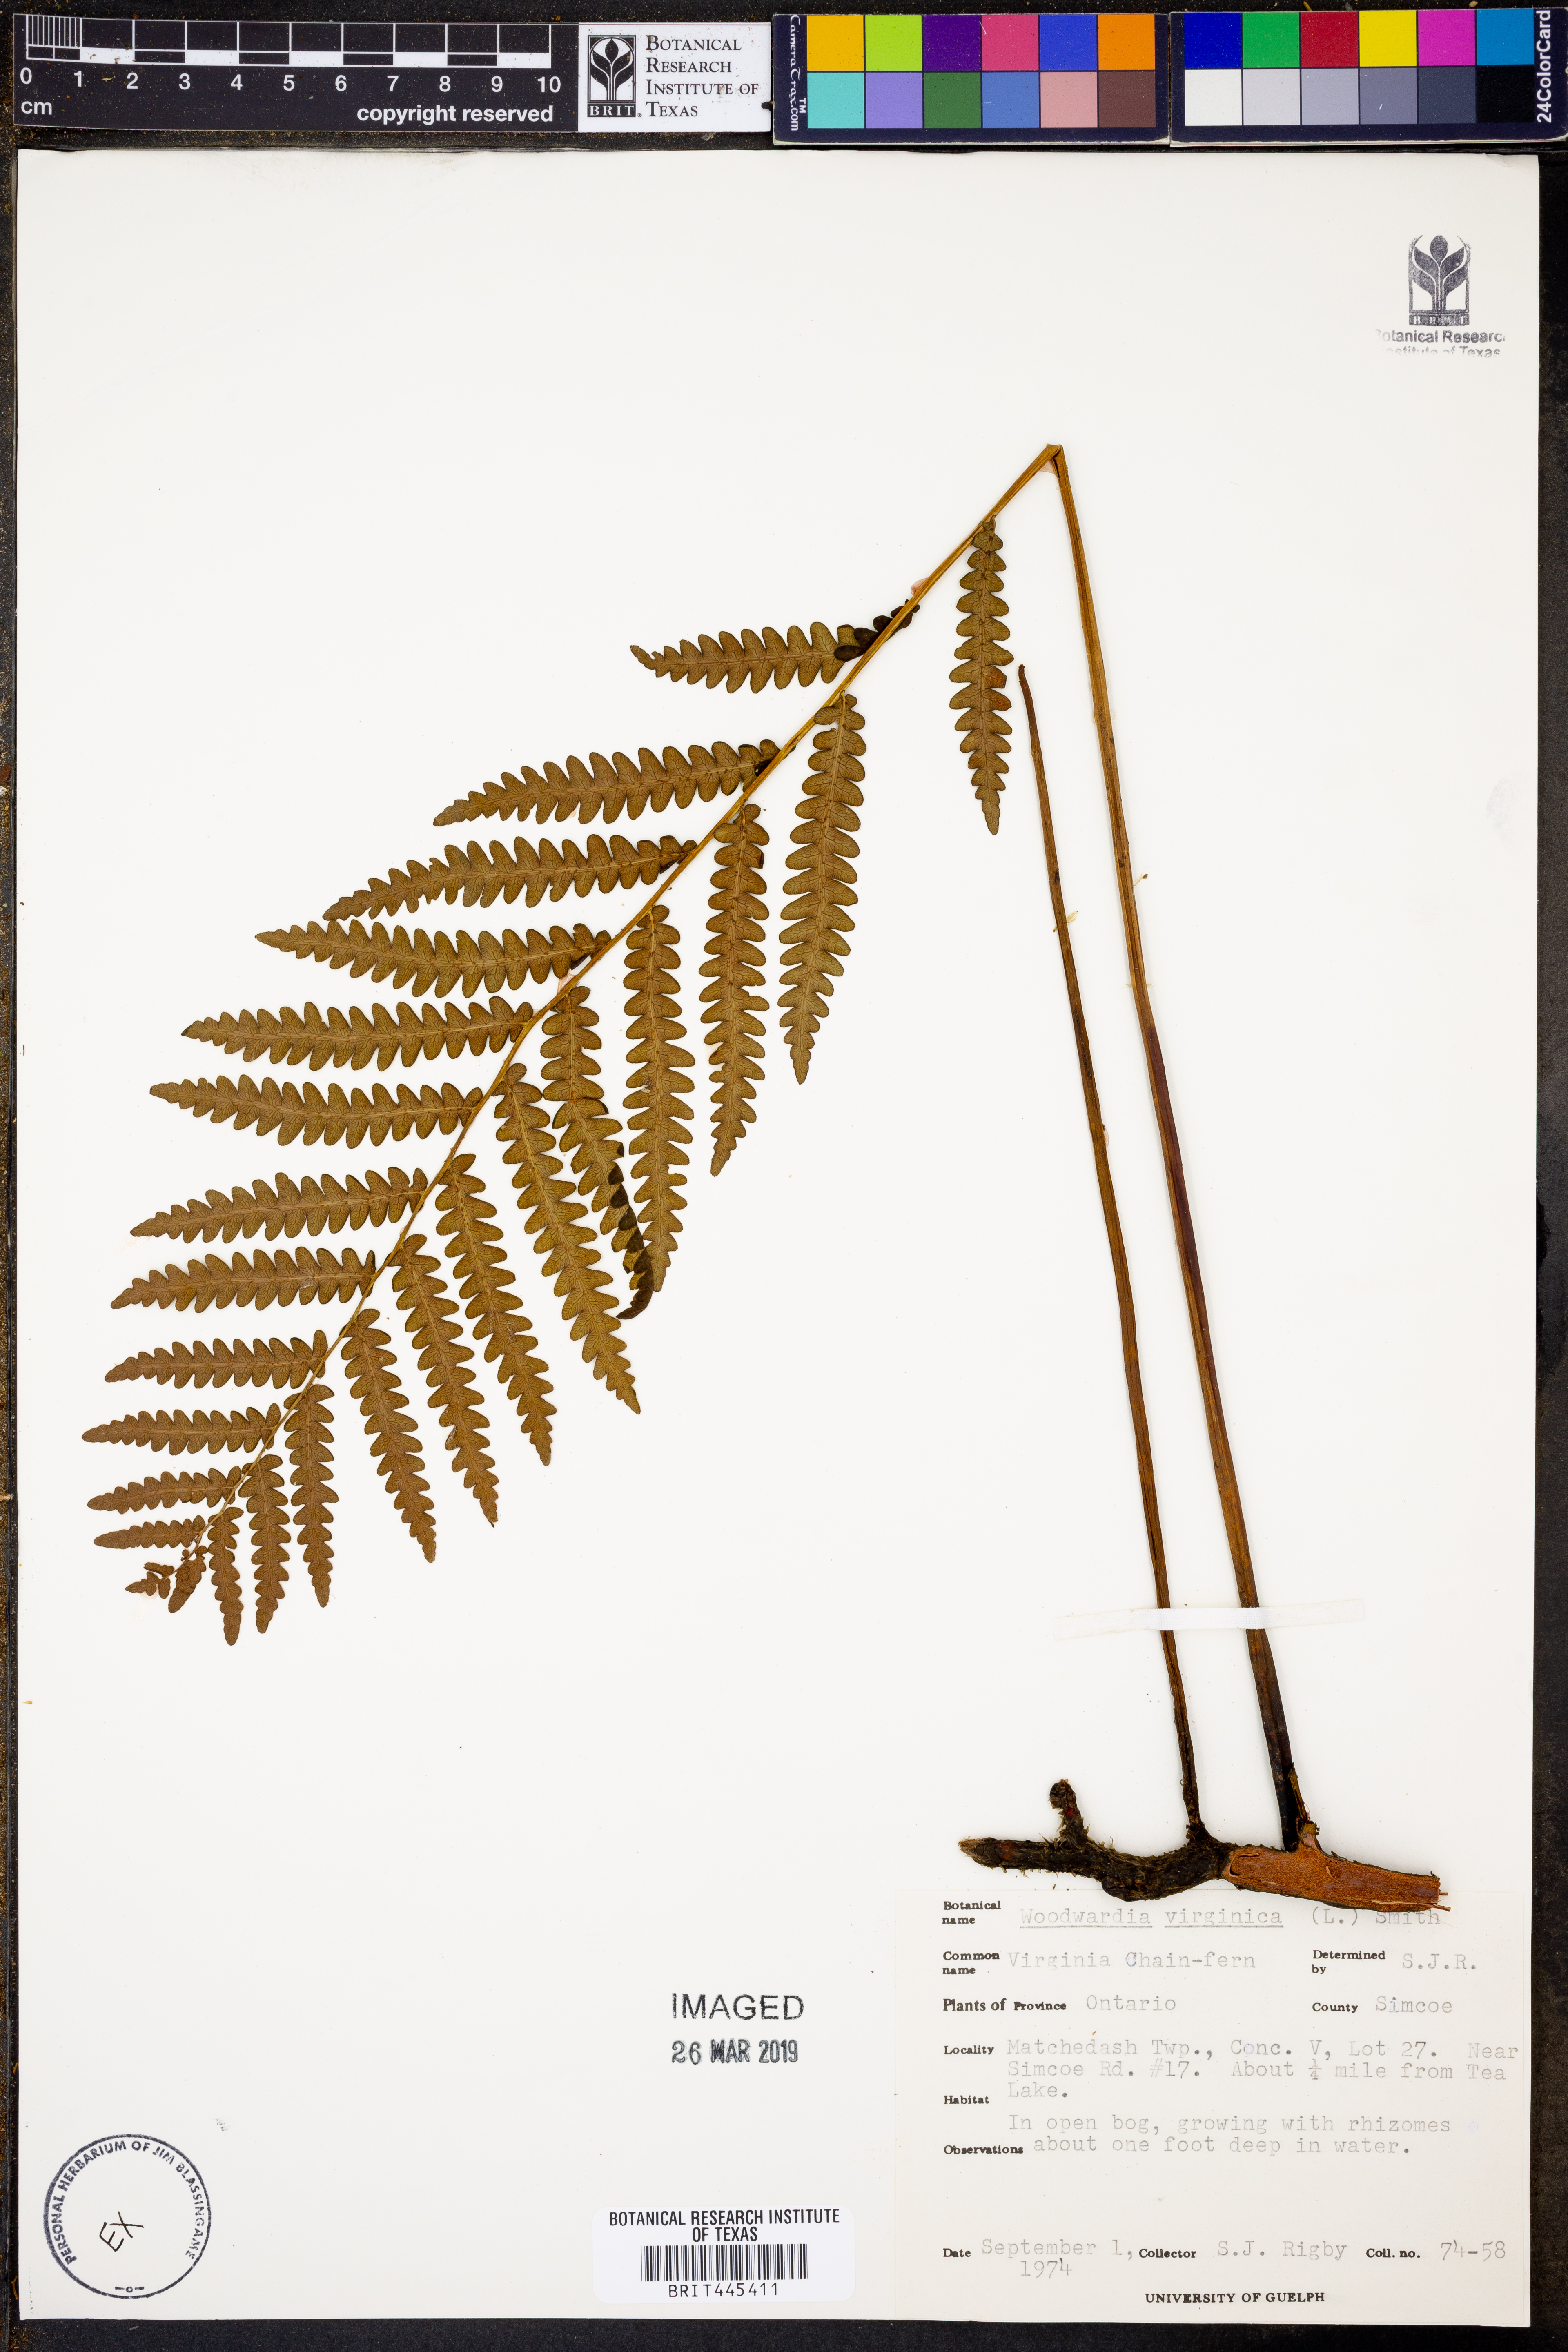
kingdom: Plantae
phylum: Tracheophyta
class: Polypodiopsida
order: Polypodiales
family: Blechnaceae
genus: Anchistea
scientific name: Anchistea virginica
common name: Virginia chain fern
